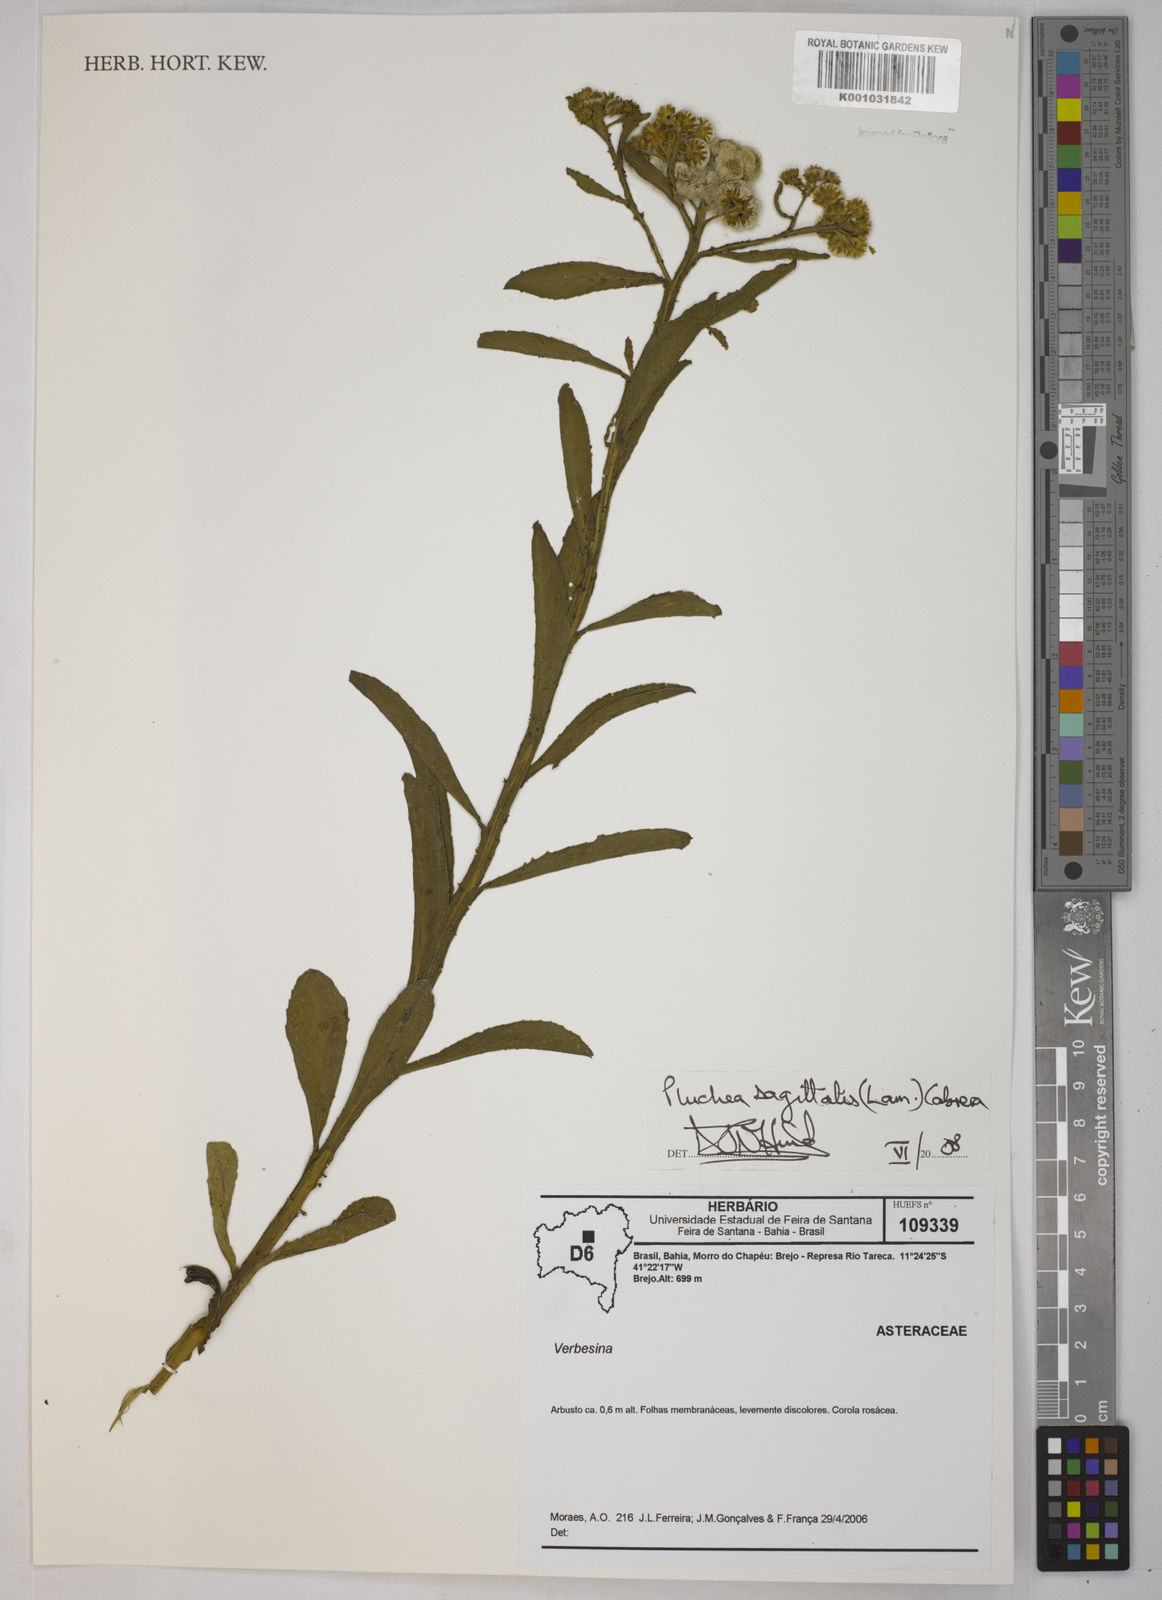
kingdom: Plantae
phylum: Tracheophyta
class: Magnoliopsida
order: Asterales
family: Asteraceae
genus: Pluchea
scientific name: Pluchea sagittalis
